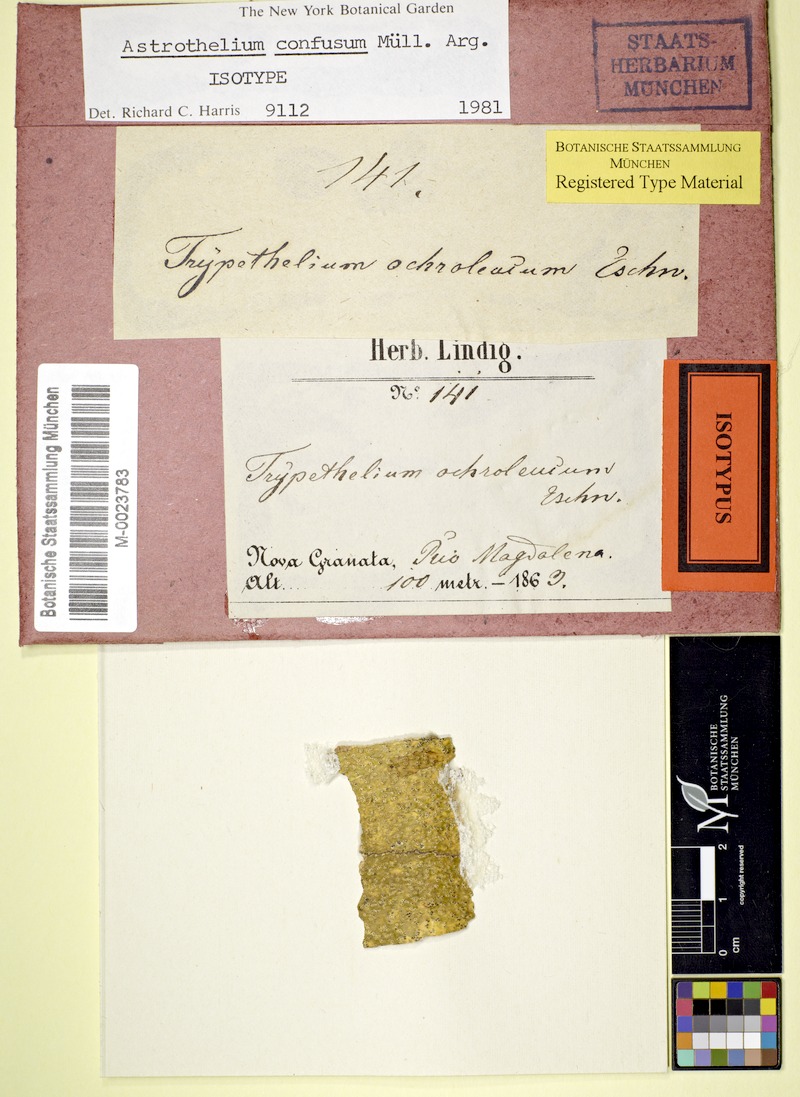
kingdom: Fungi
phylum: Ascomycota
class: Dothideomycetes
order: Trypetheliales
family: Trypetheliaceae
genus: Astrothelium
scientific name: Astrothelium confusum
